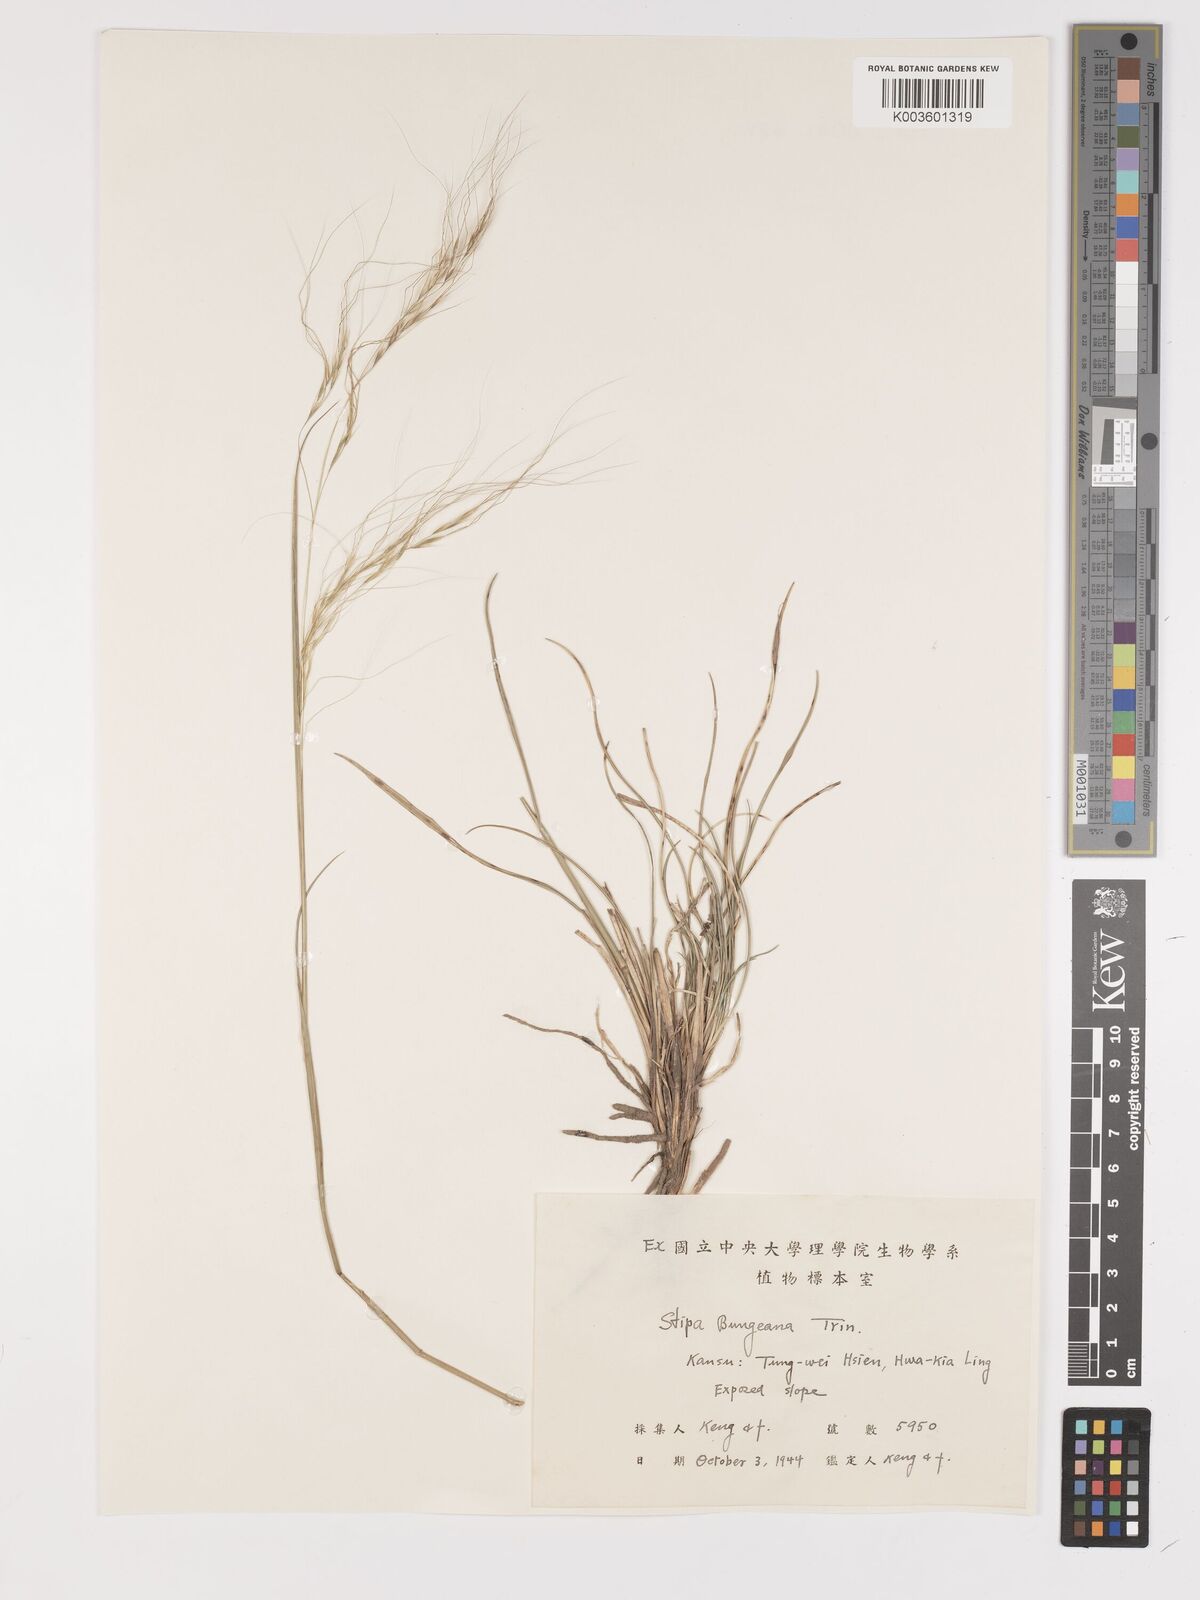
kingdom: Plantae
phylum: Tracheophyta
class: Liliopsida
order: Poales
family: Poaceae
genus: Stipa
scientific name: Stipa bungeana
